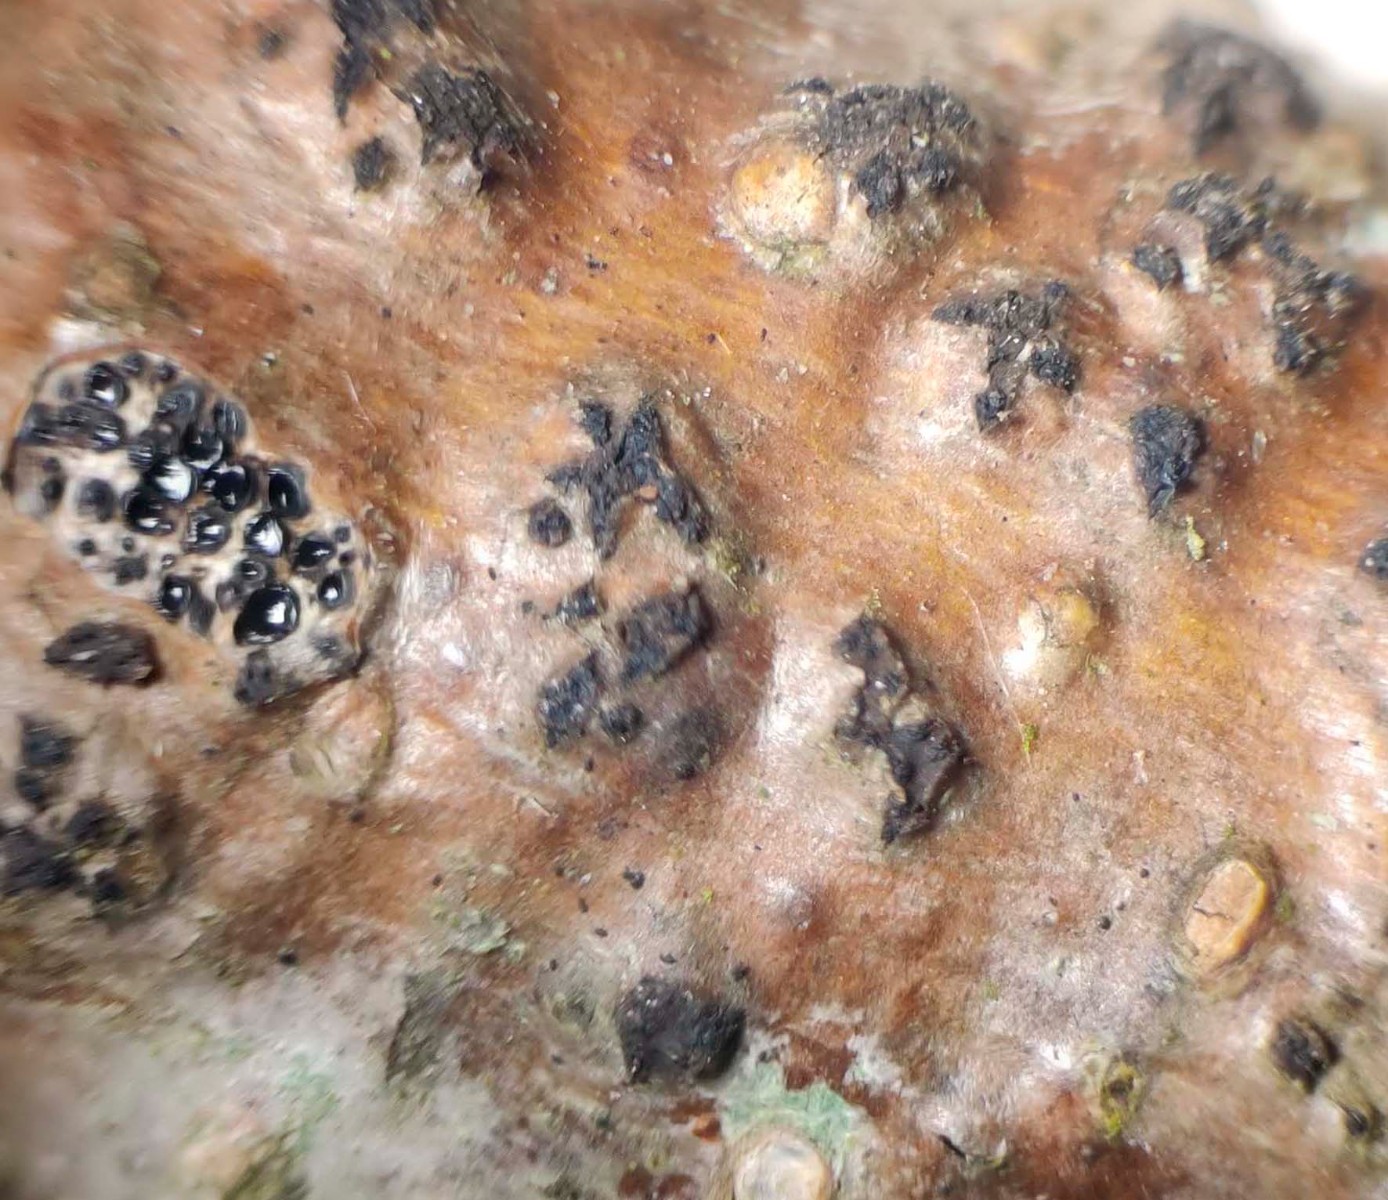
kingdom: Fungi
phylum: Ascomycota
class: Sordariomycetes
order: Xylariales
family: Diatrypaceae
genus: Diatrypella
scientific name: Diatrypella favacea
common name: Birch blackhead
